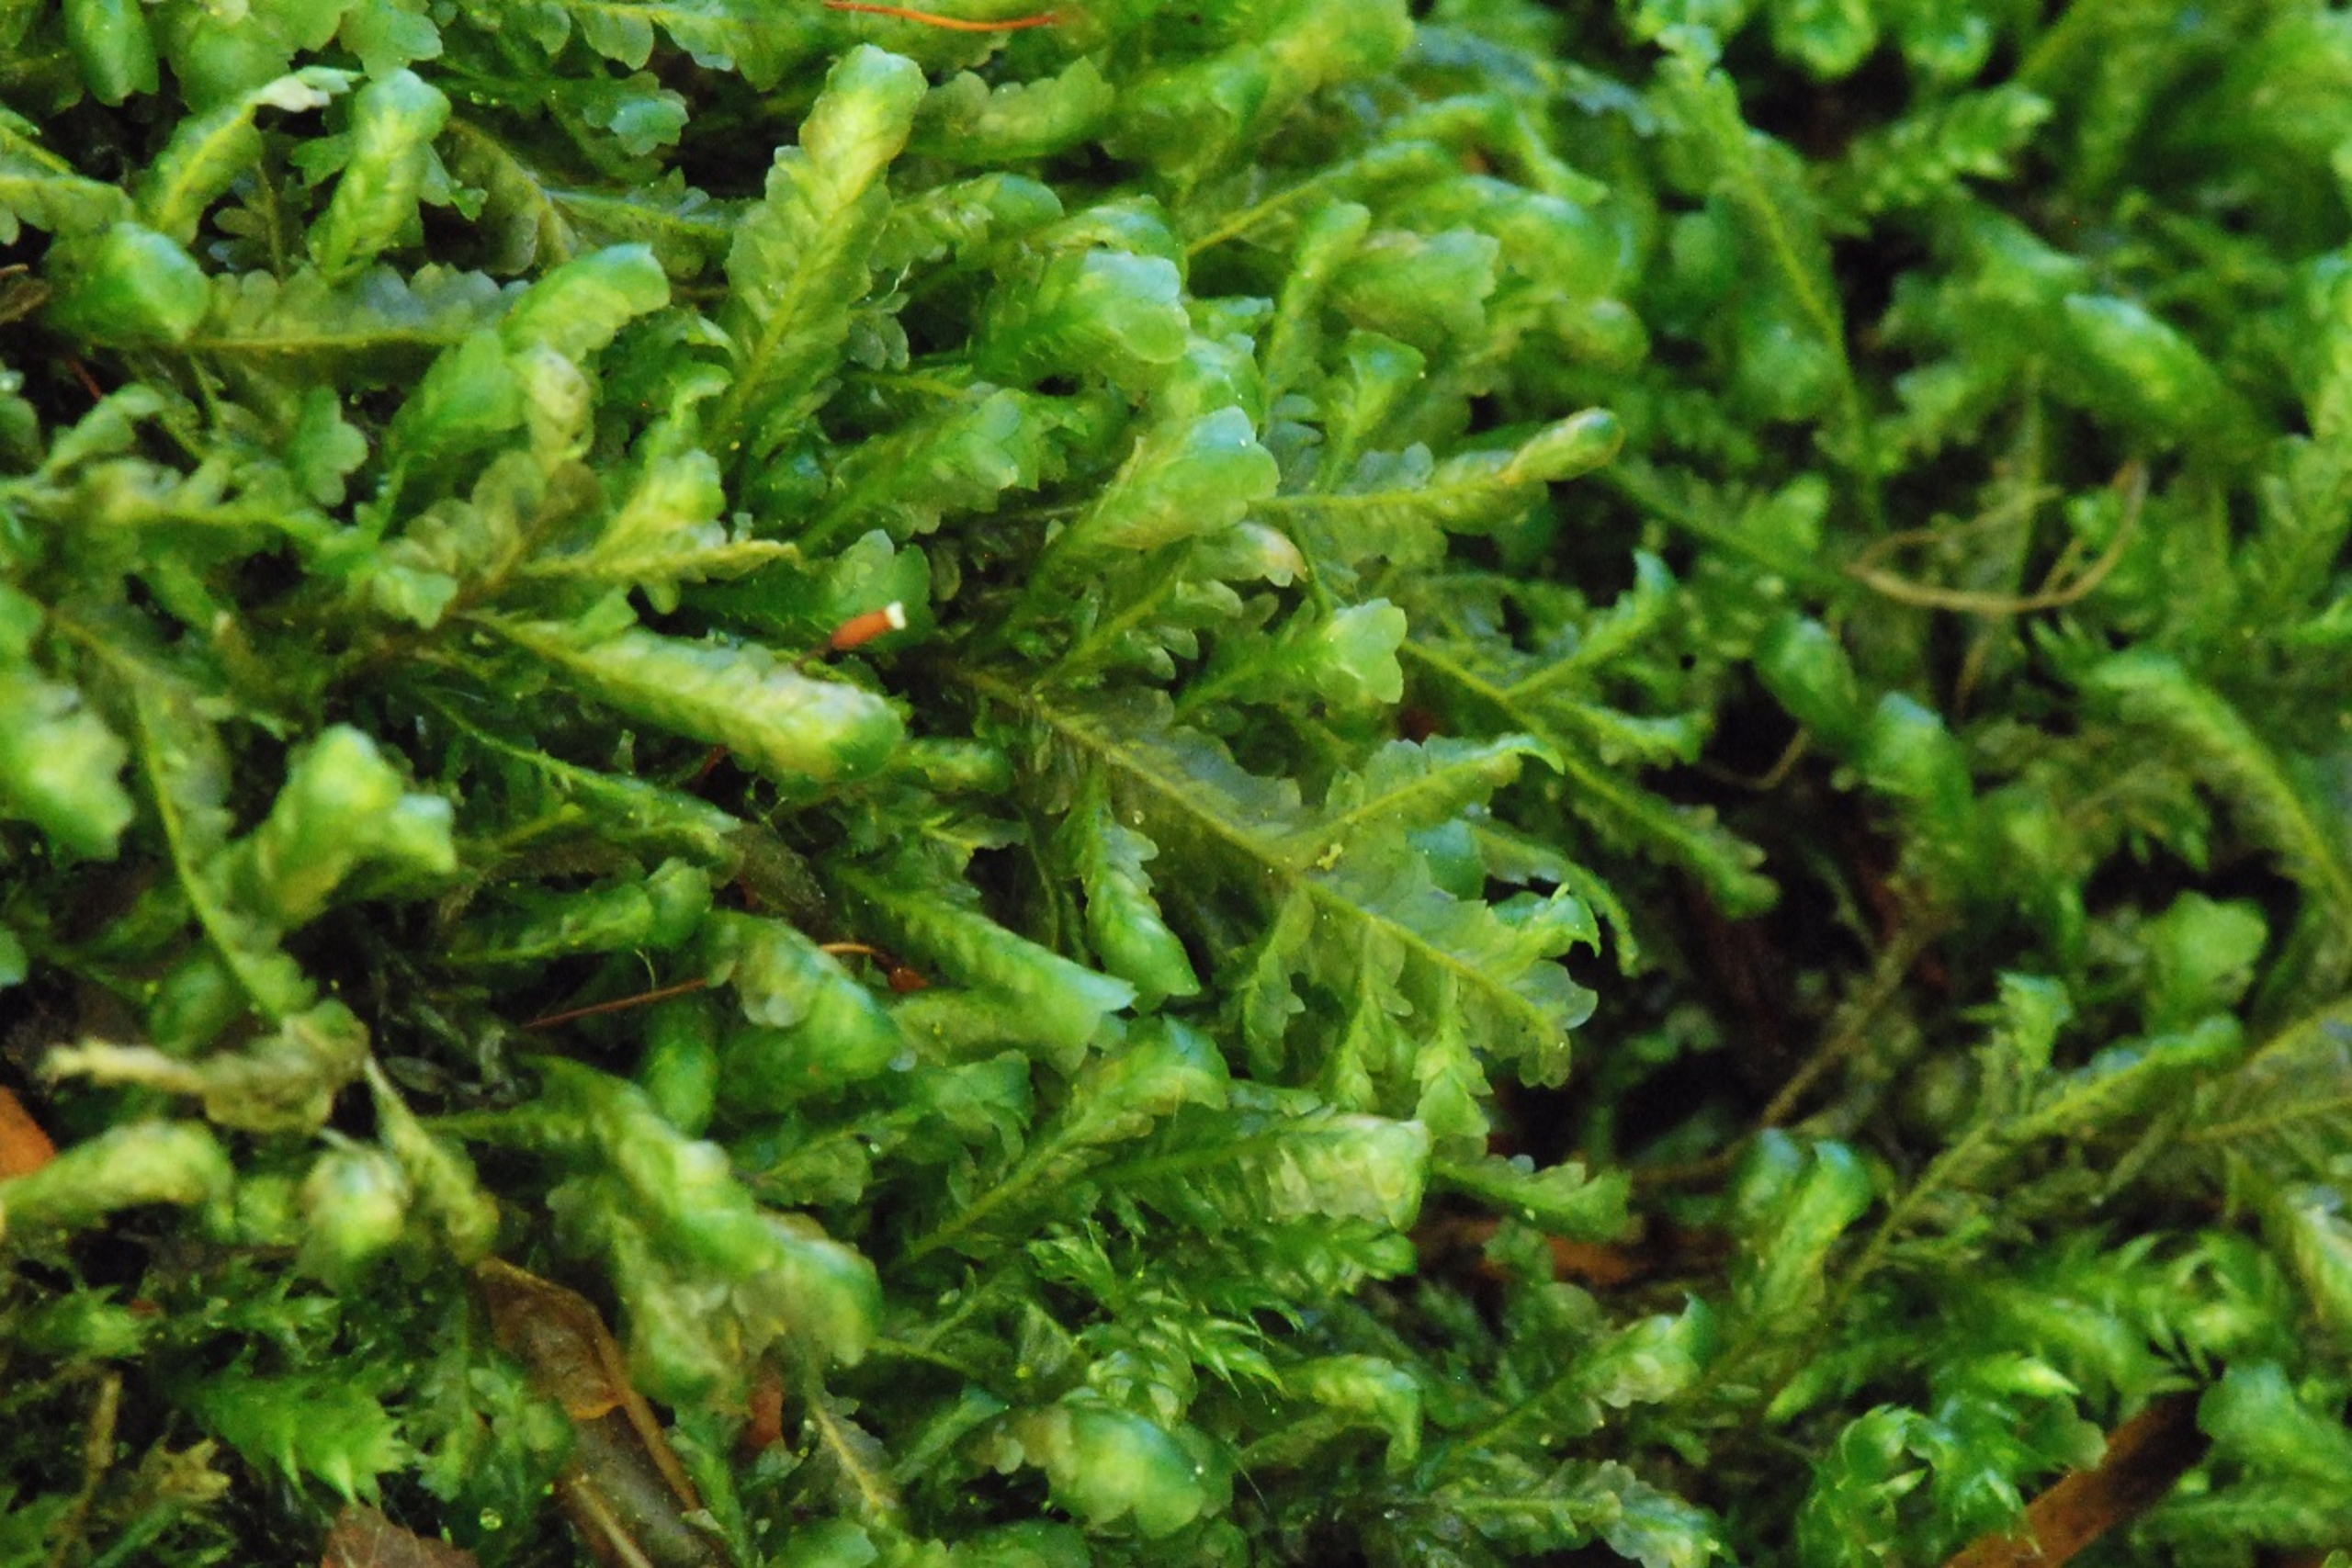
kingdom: Plantae
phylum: Bryophyta
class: Bryopsida
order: Hypnales
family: Neckeraceae
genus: Homalia
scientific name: Homalia trichomanoides
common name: Skov-tungemos
